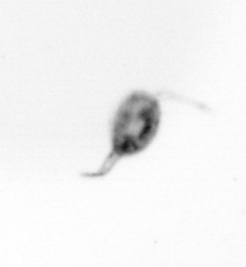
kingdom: Animalia
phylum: Arthropoda
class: Copepoda
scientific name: Copepoda
